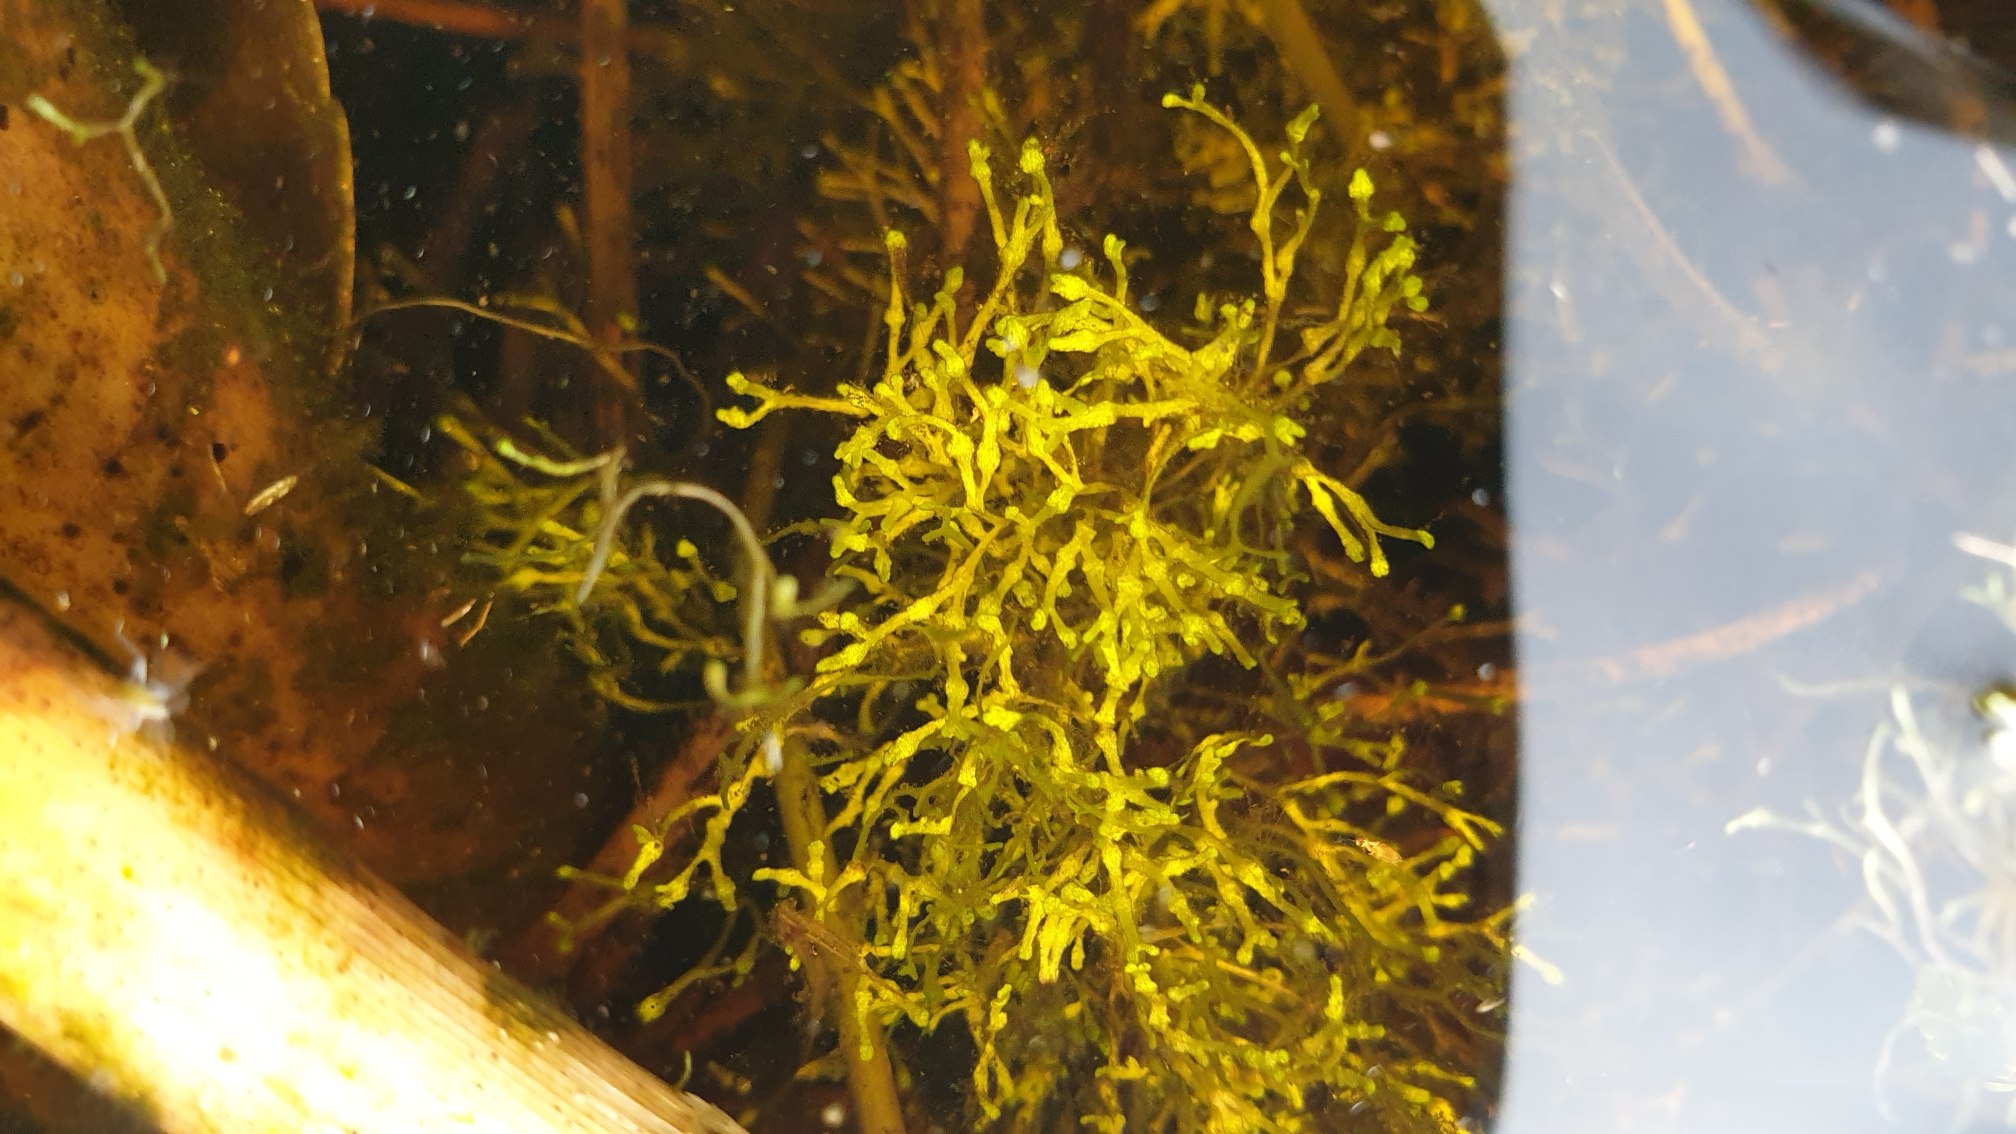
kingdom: Plantae
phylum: Marchantiophyta
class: Marchantiopsida
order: Marchantiales
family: Ricciaceae
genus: Riccia
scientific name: Riccia
